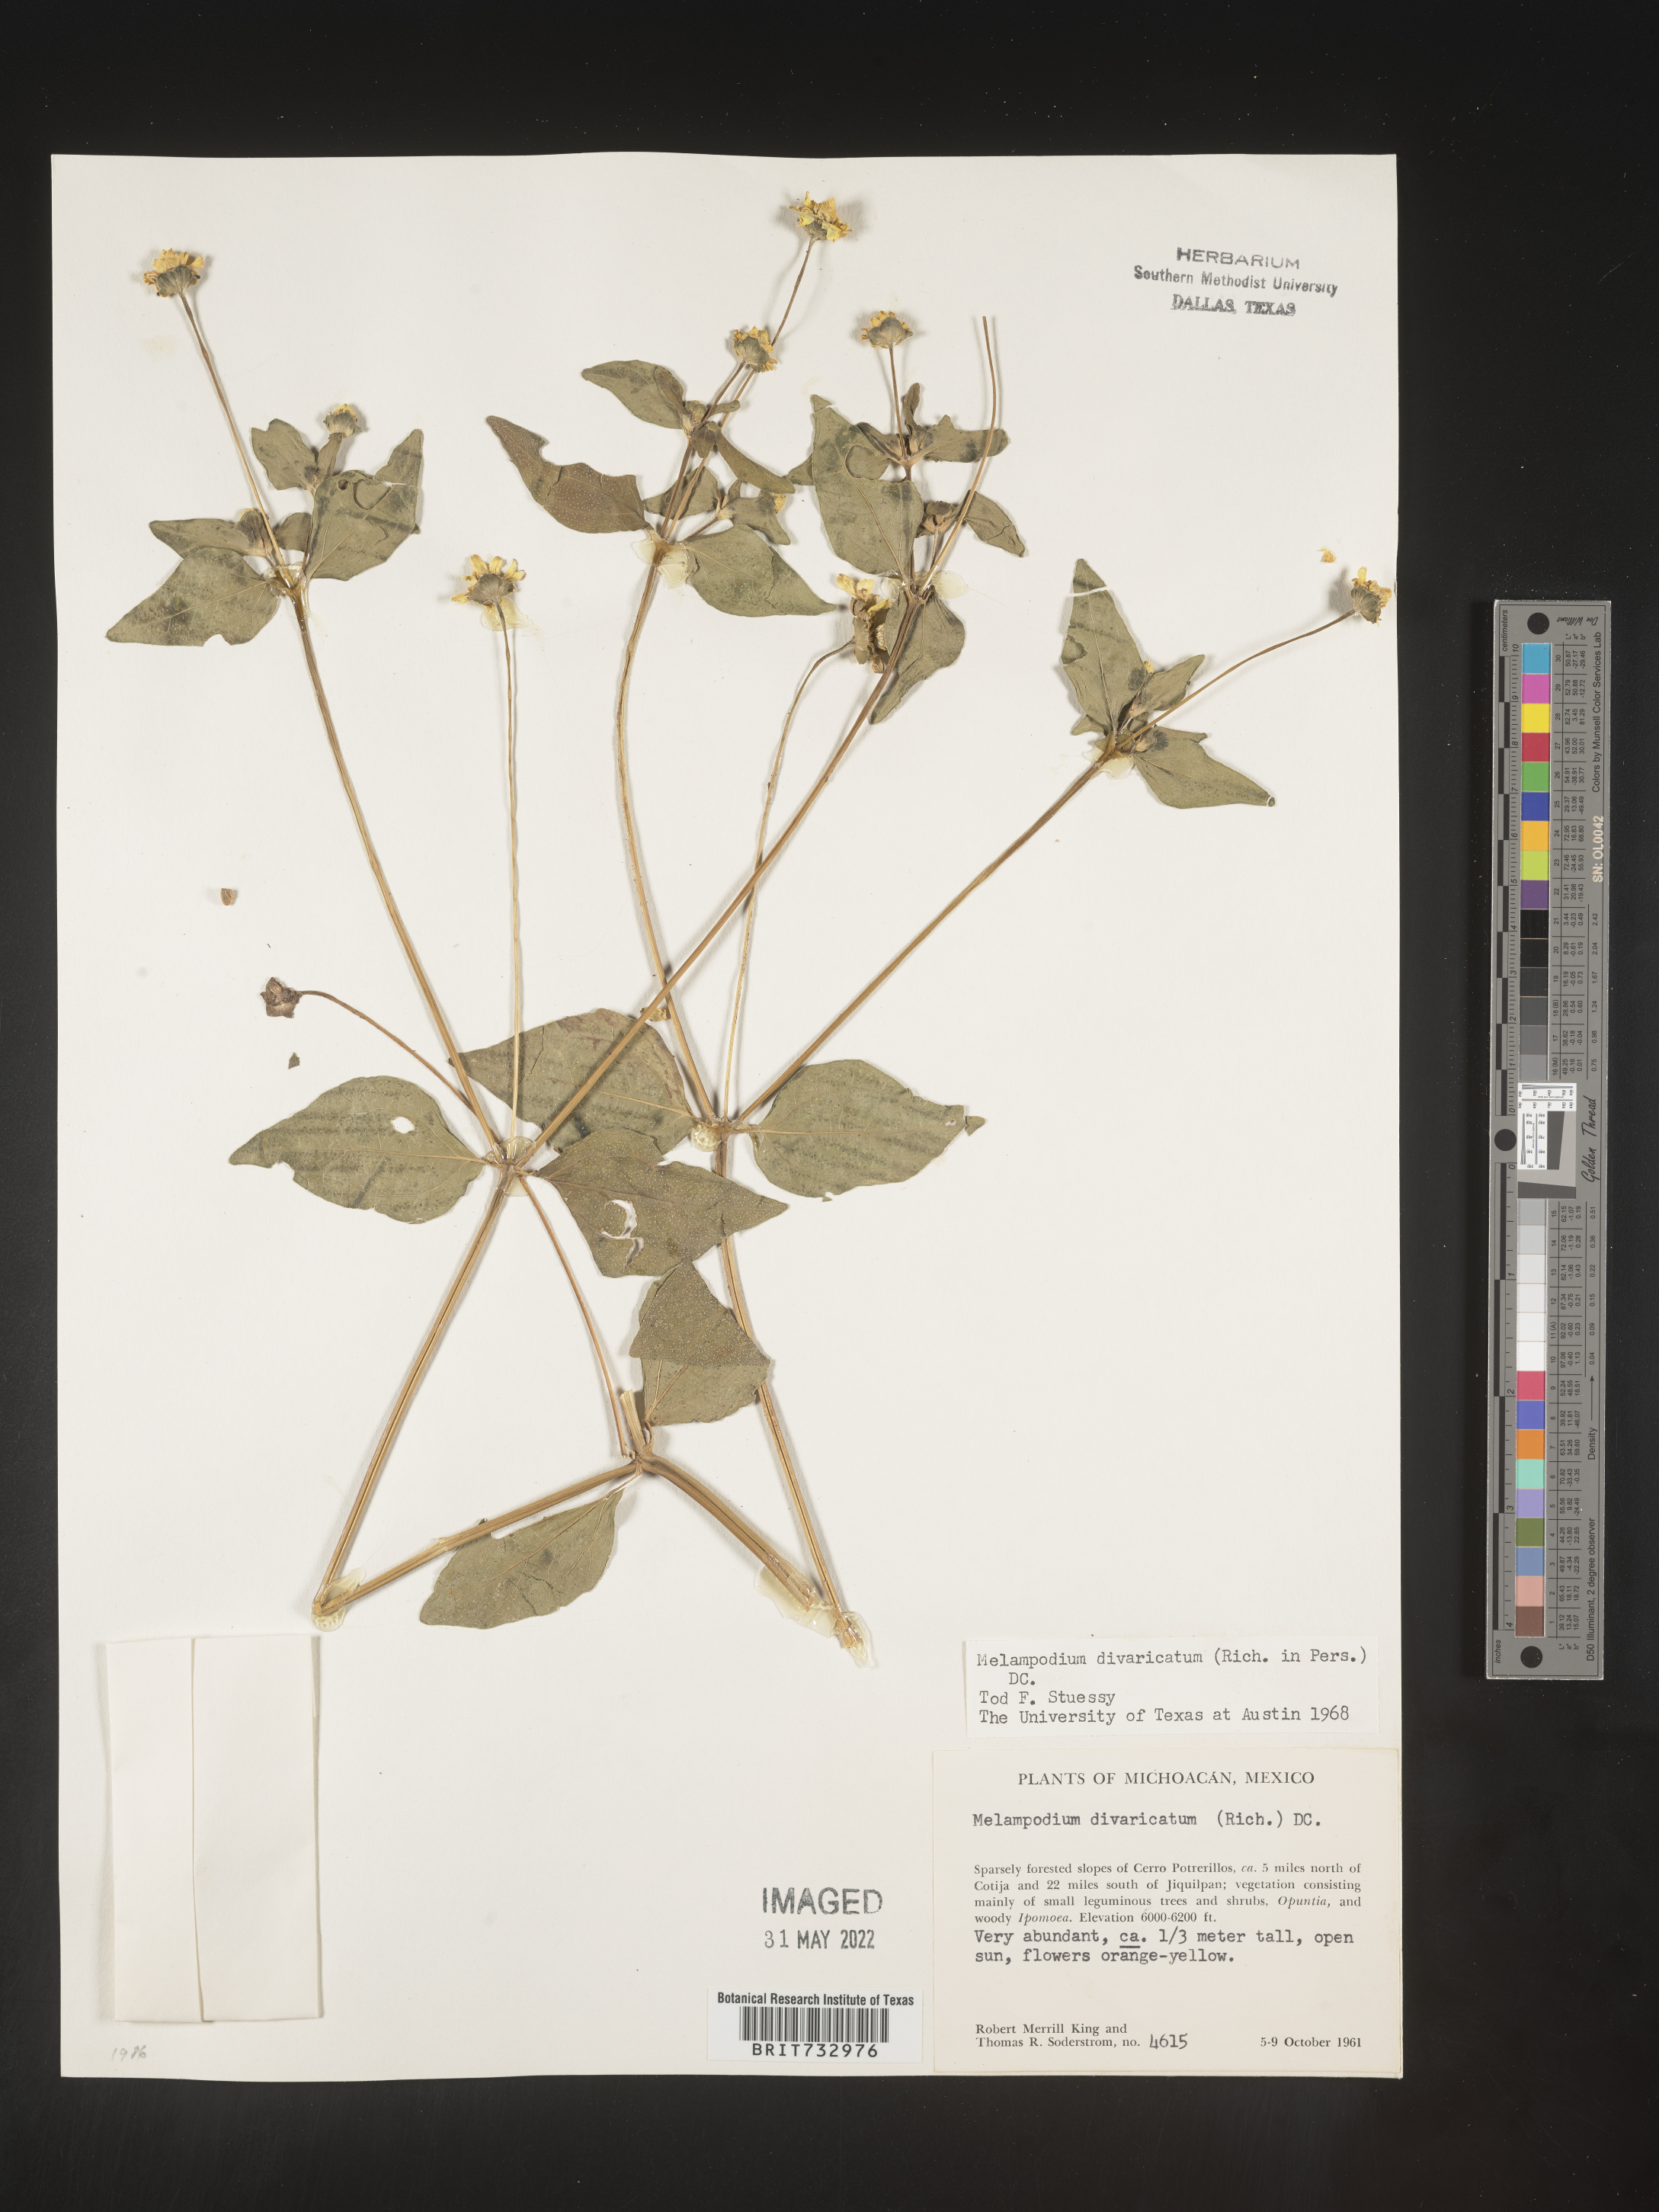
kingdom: Plantae
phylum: Tracheophyta
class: Magnoliopsida
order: Asterales
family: Asteraceae
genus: Melampodium
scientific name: Melampodium
